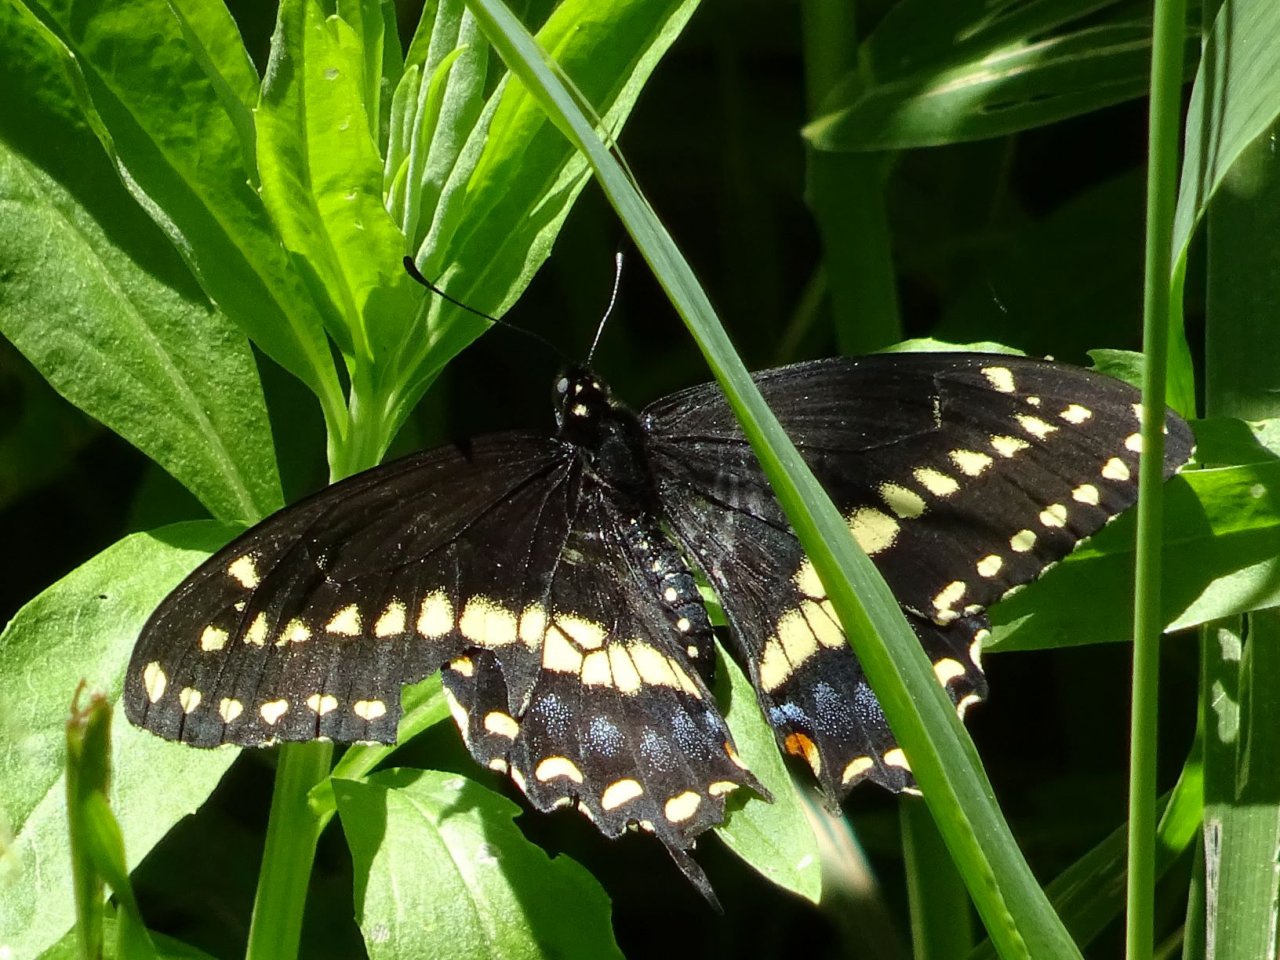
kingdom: Animalia
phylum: Arthropoda
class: Insecta
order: Lepidoptera
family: Papilionidae
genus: Papilio
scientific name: Papilio polyxenes
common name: Black Swallowtail
